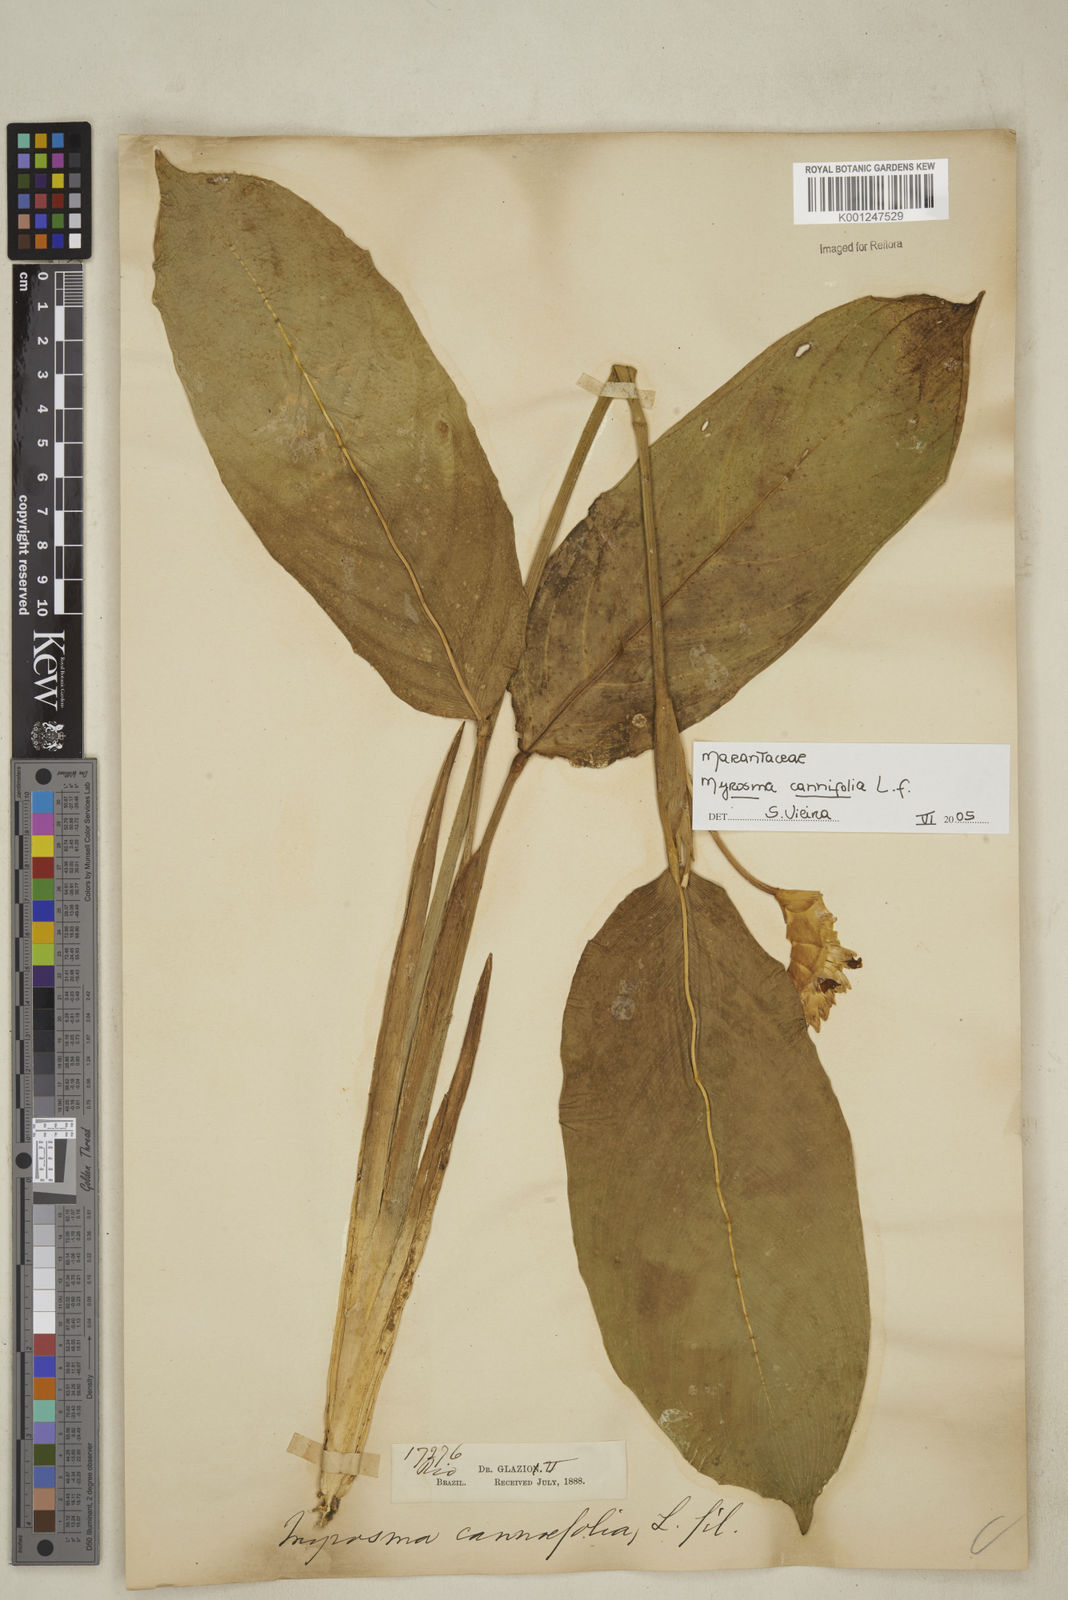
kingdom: Plantae
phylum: Tracheophyta
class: Liliopsida
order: Zingiberales
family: Marantaceae
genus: Myrosma
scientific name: Myrosma cannifolia
